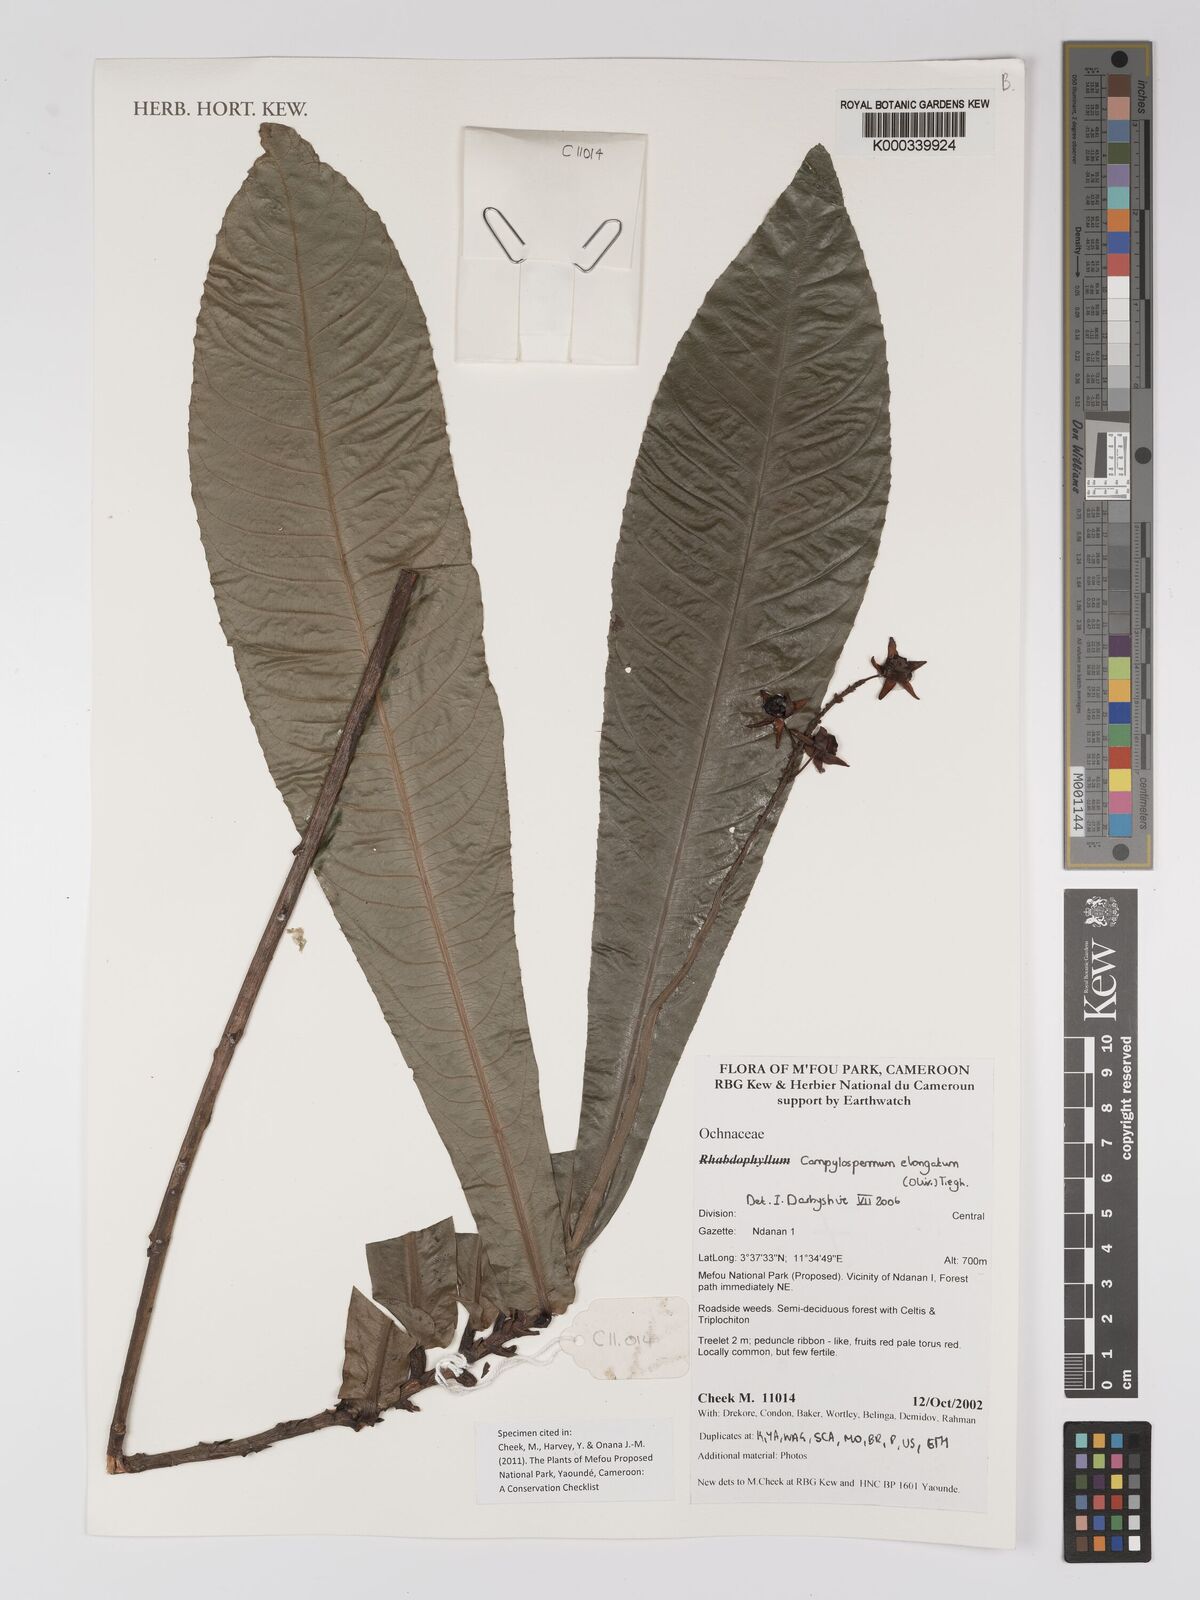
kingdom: Plantae
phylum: Tracheophyta
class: Magnoliopsida
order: Malpighiales
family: Ochnaceae
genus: Gomphia
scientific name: Gomphia elongata
